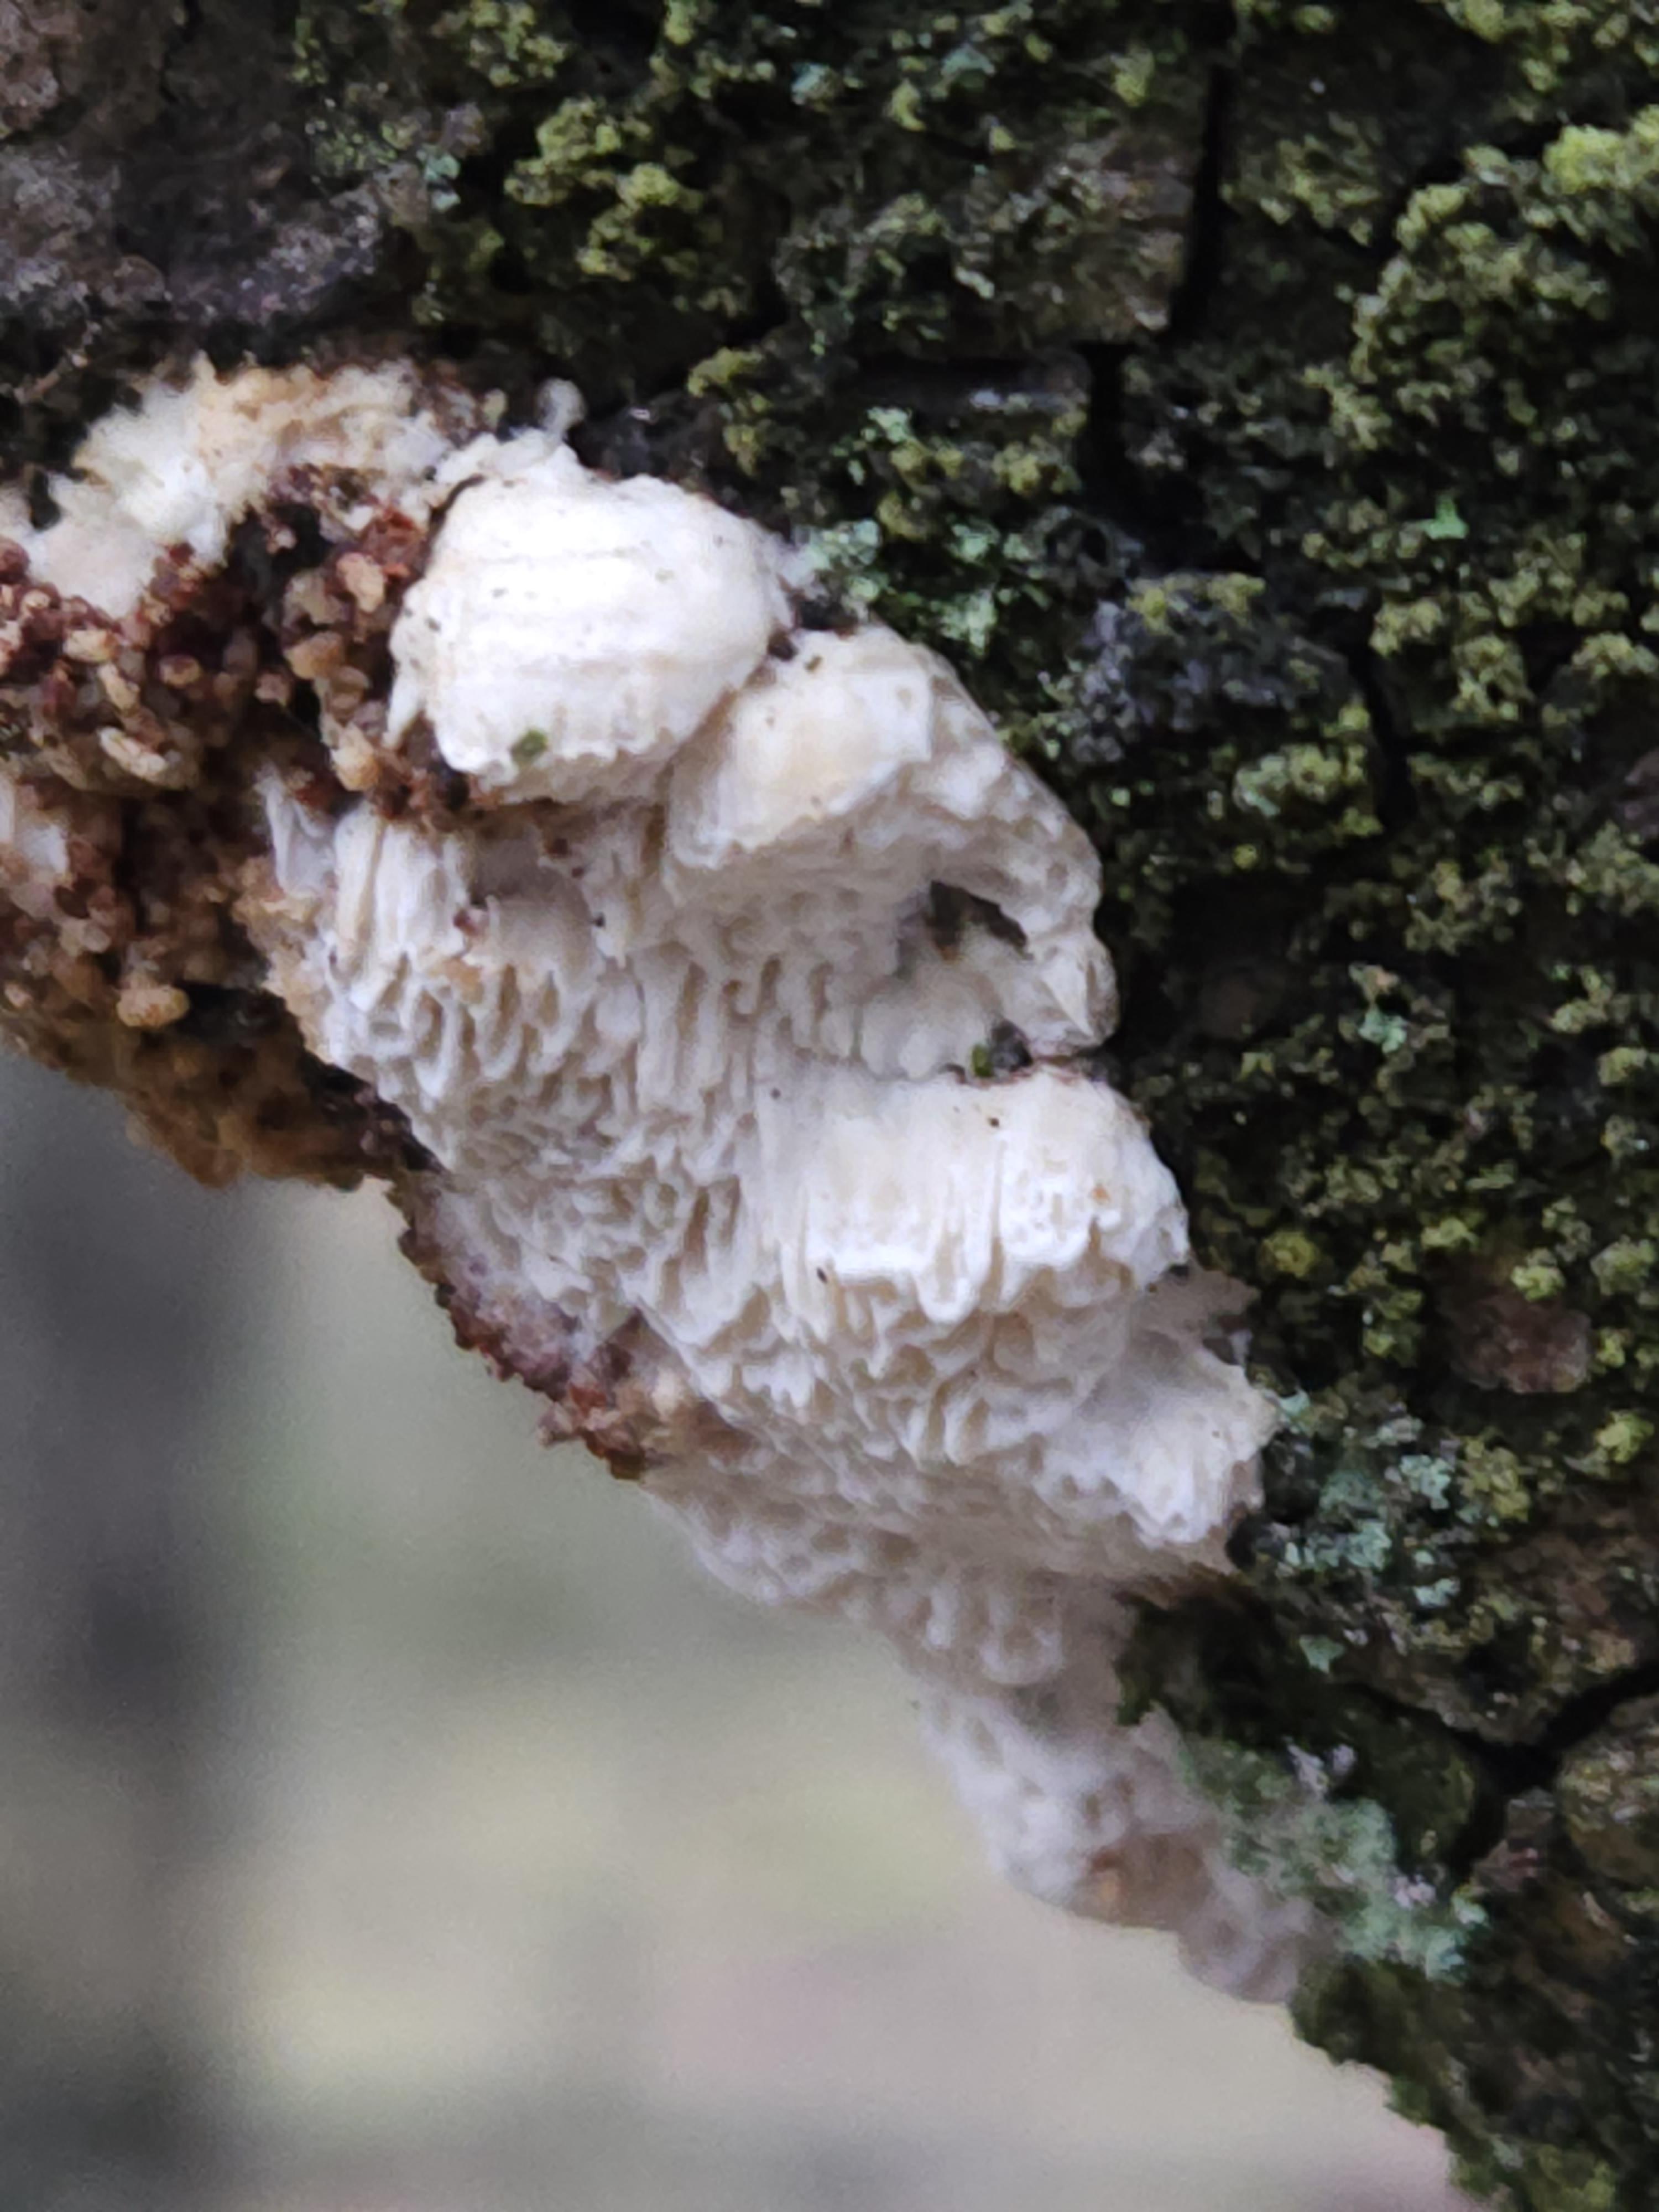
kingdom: Fungi
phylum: Basidiomycota
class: Agaricomycetes
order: Polyporales
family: Fomitopsidaceae
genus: Fomitopsis
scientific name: Fomitopsis
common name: fyrre-skiveporesvamp
